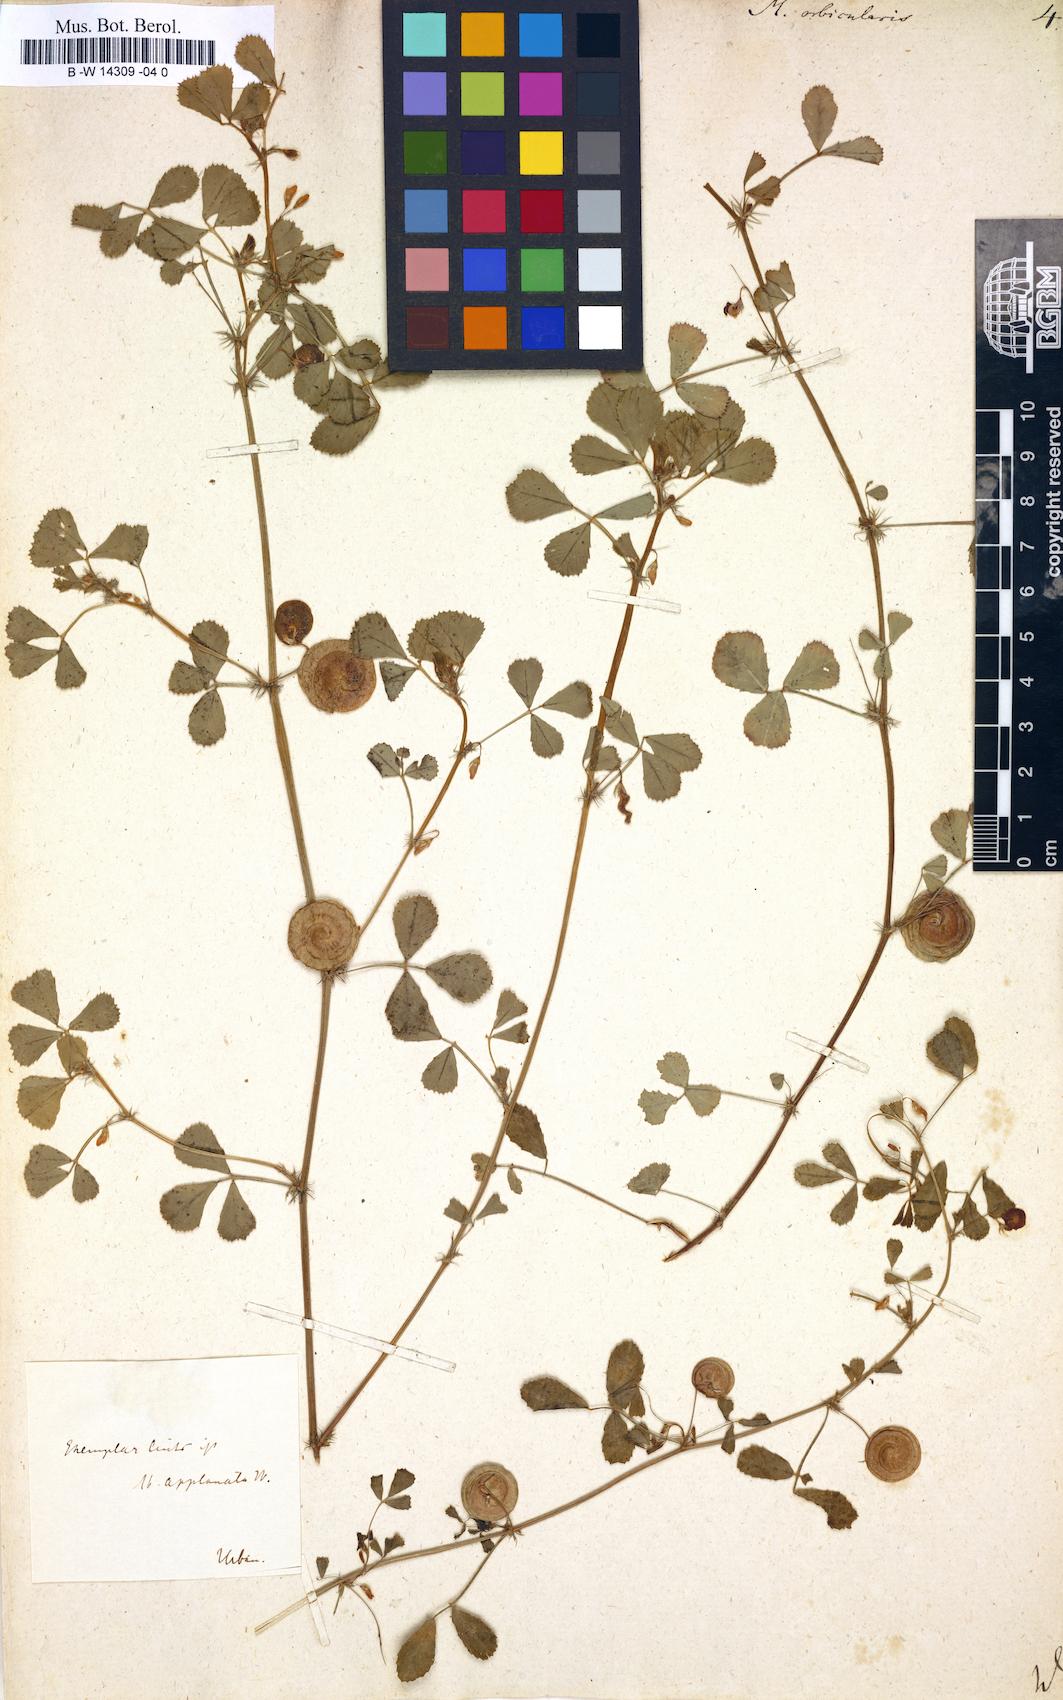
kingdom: Plantae
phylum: Tracheophyta
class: Magnoliopsida
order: Fabales
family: Fabaceae
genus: Medicago
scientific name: Medicago orbicularis
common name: Button medick
